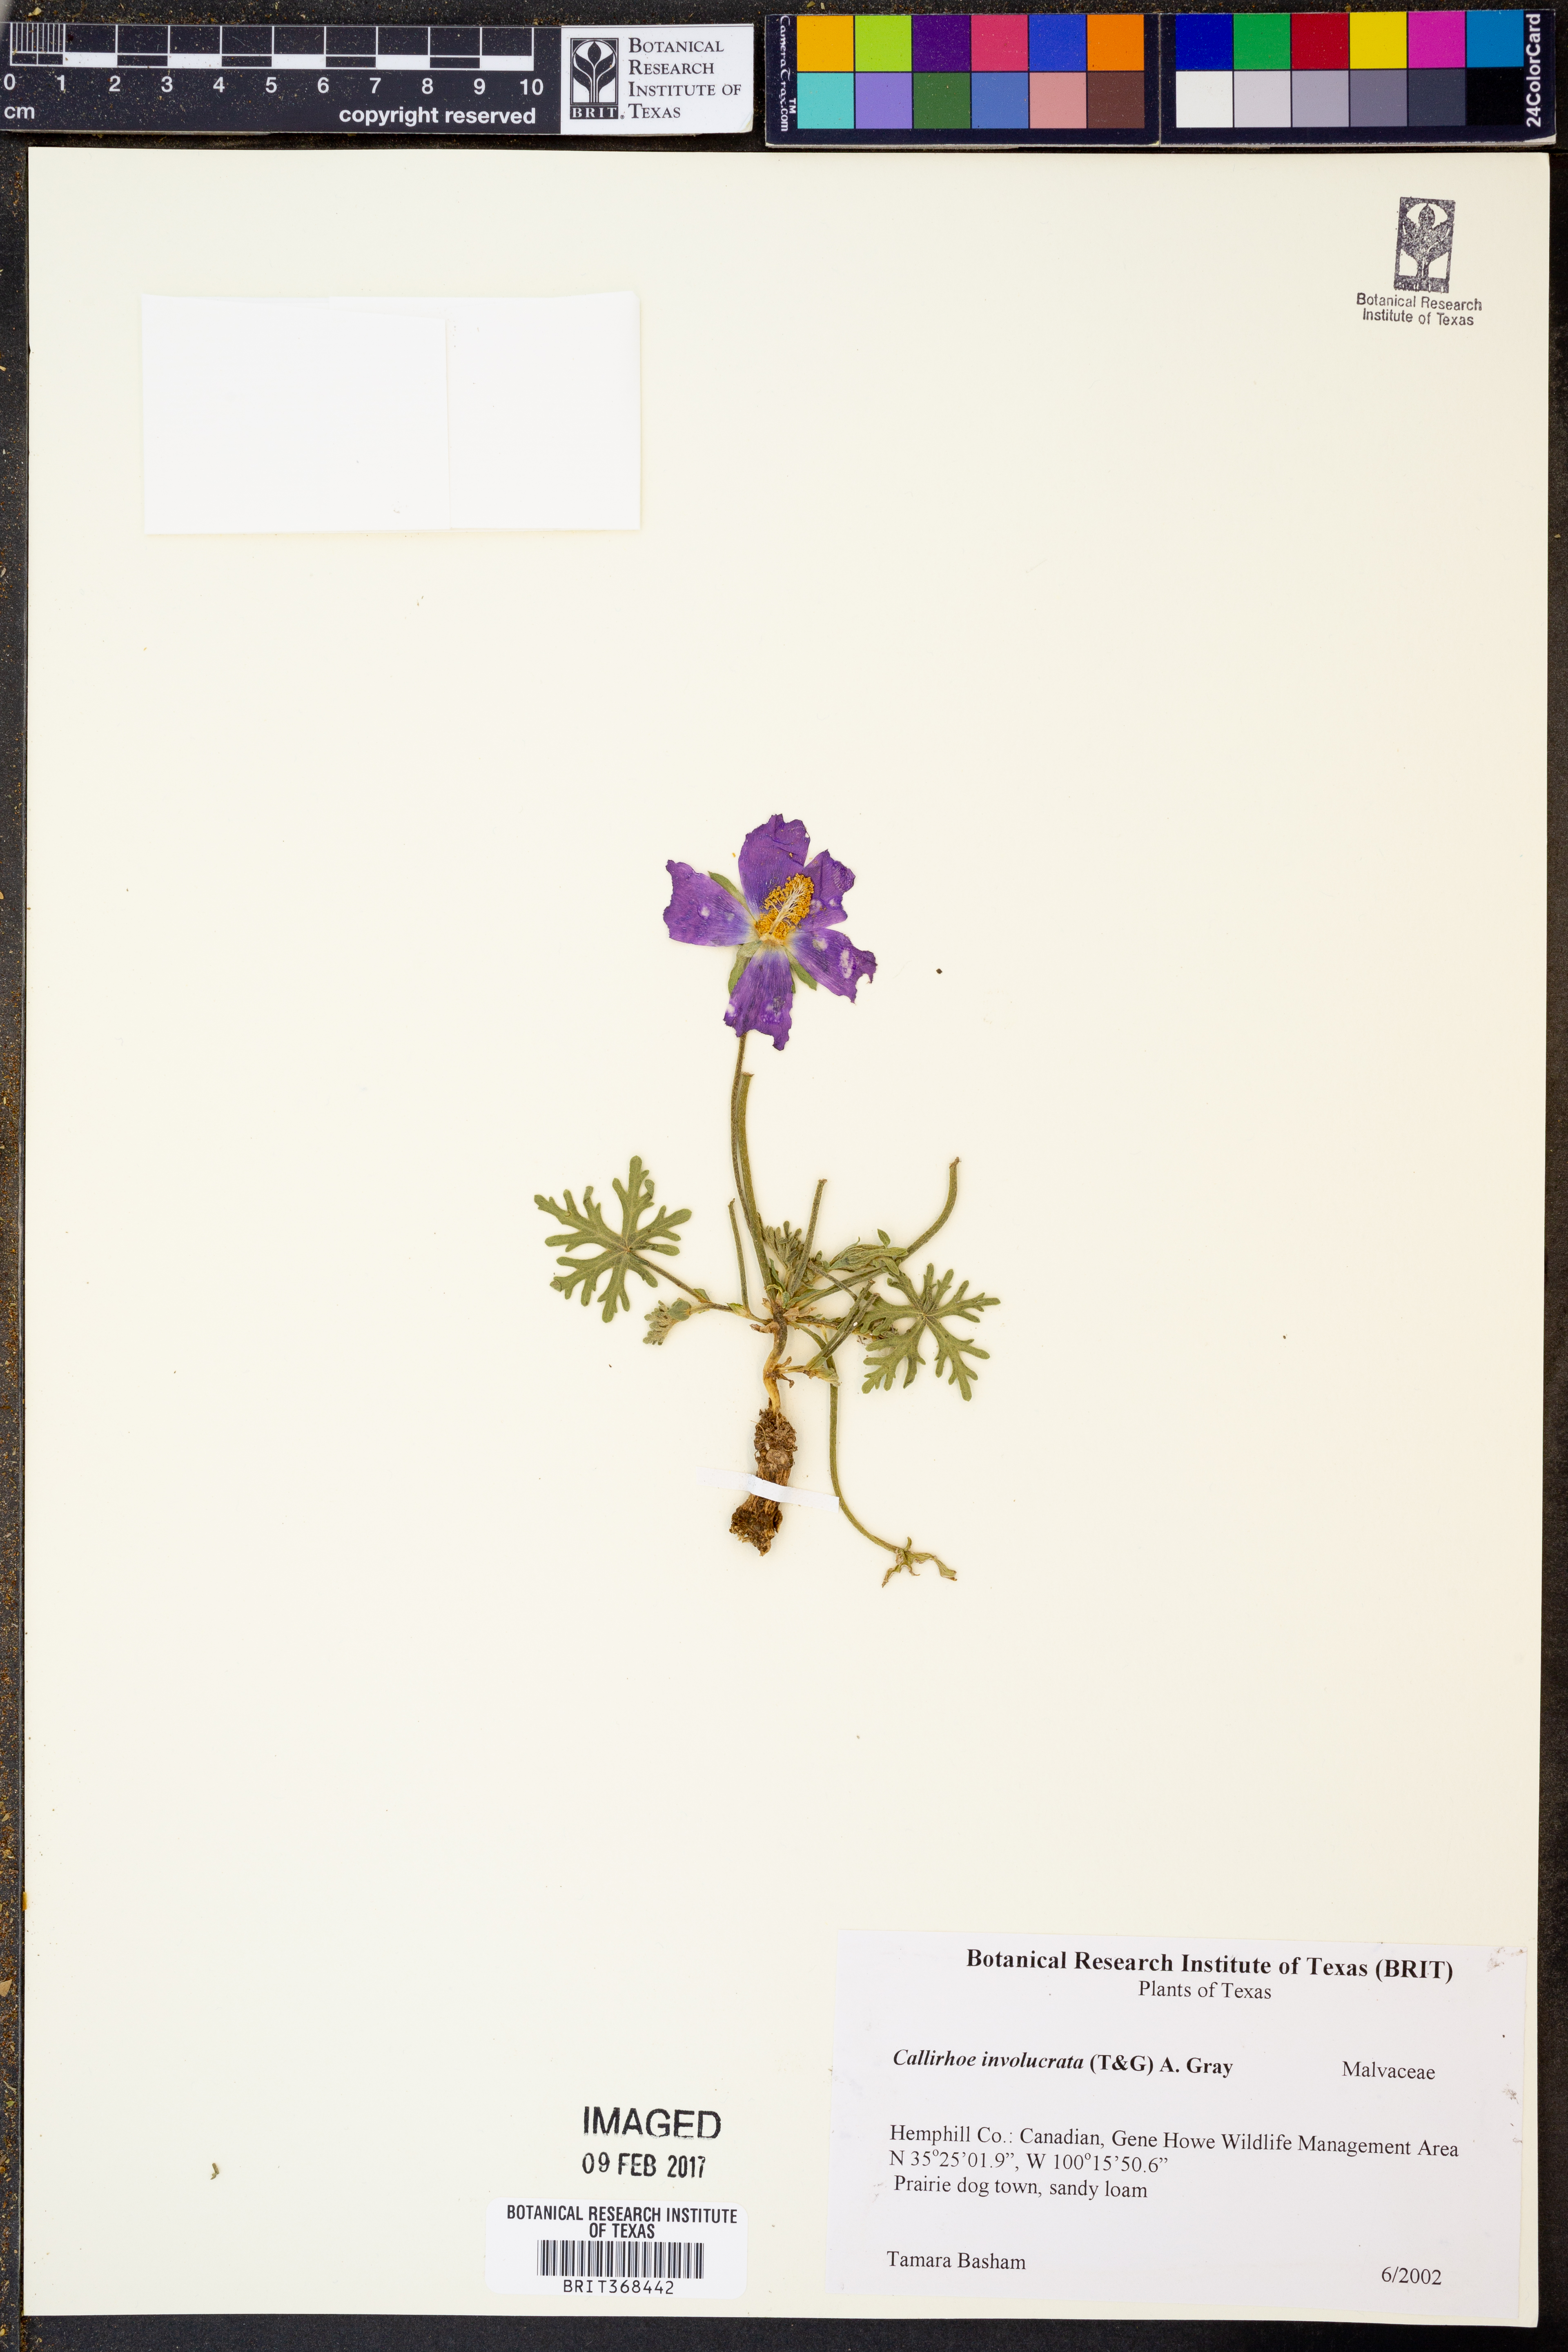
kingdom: Plantae
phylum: Tracheophyta
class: Magnoliopsida
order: Malvales
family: Malvaceae
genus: Callirhoe
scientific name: Callirhoe involucrata
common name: Purple poppy-mallow
